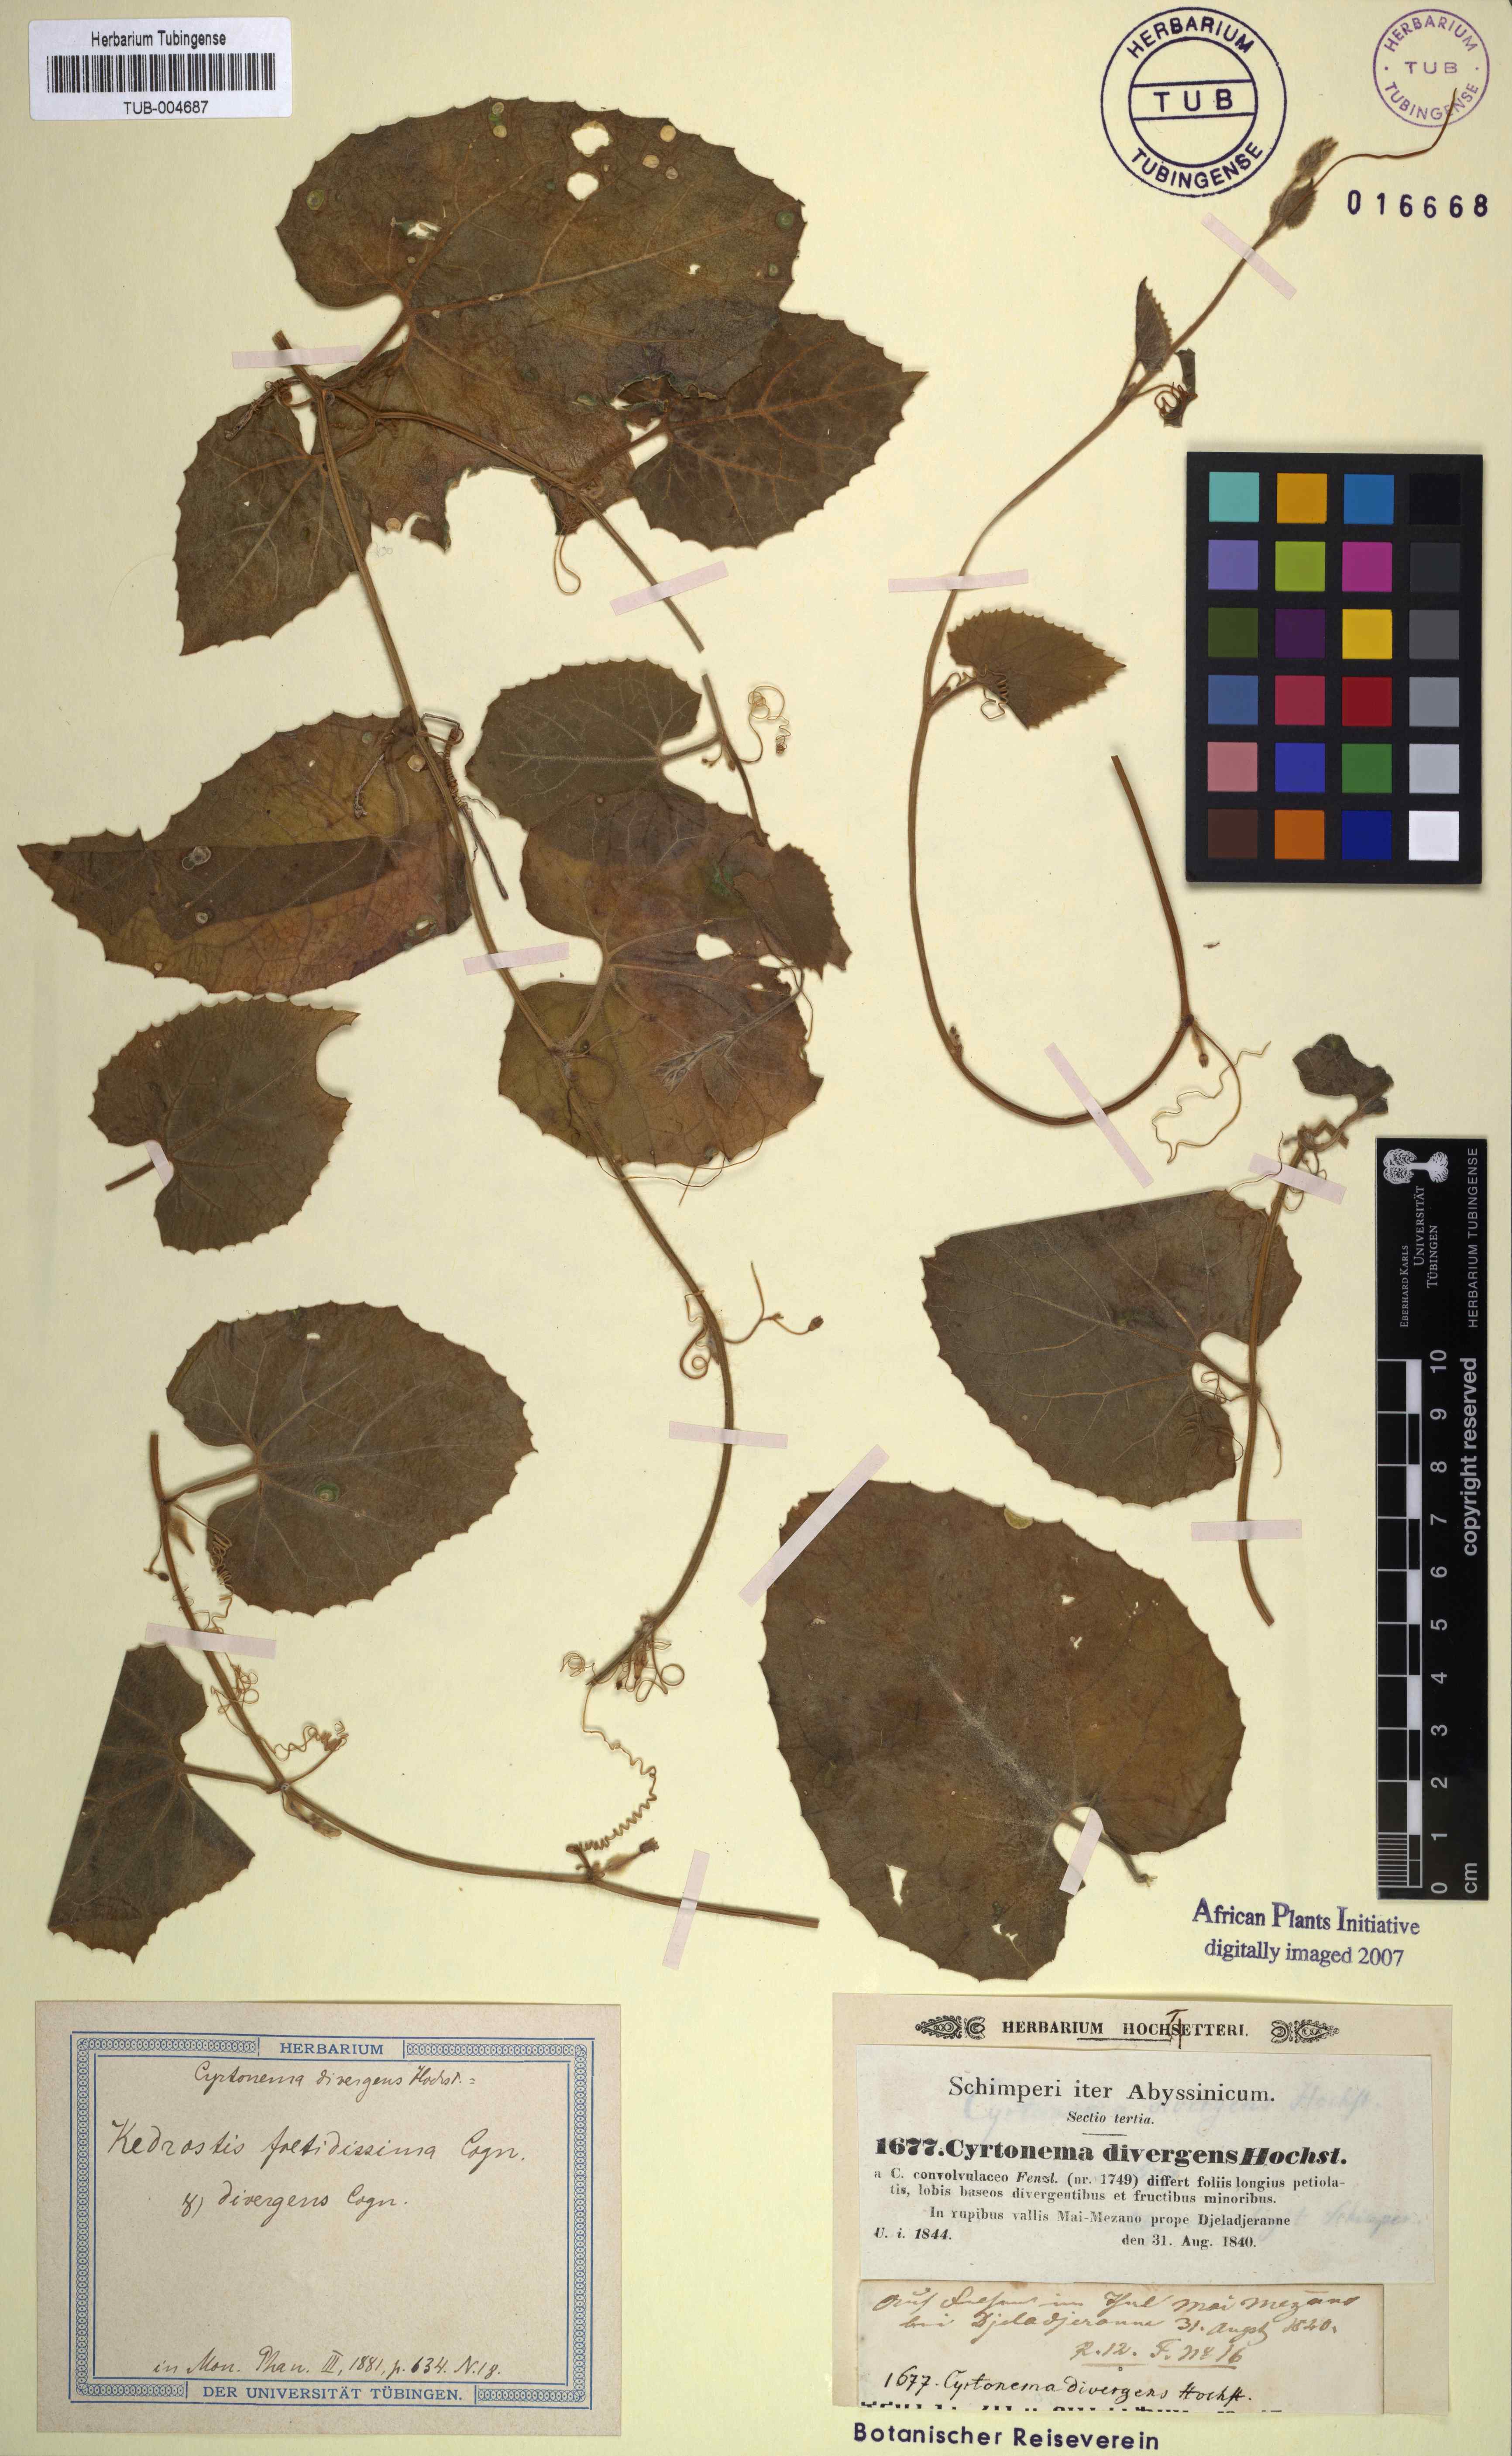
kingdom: Plantae
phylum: Tracheophyta
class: Magnoliopsida
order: Cucurbitales
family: Cucurbitaceae
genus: Kedrostis
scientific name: Kedrostis foetidissima
